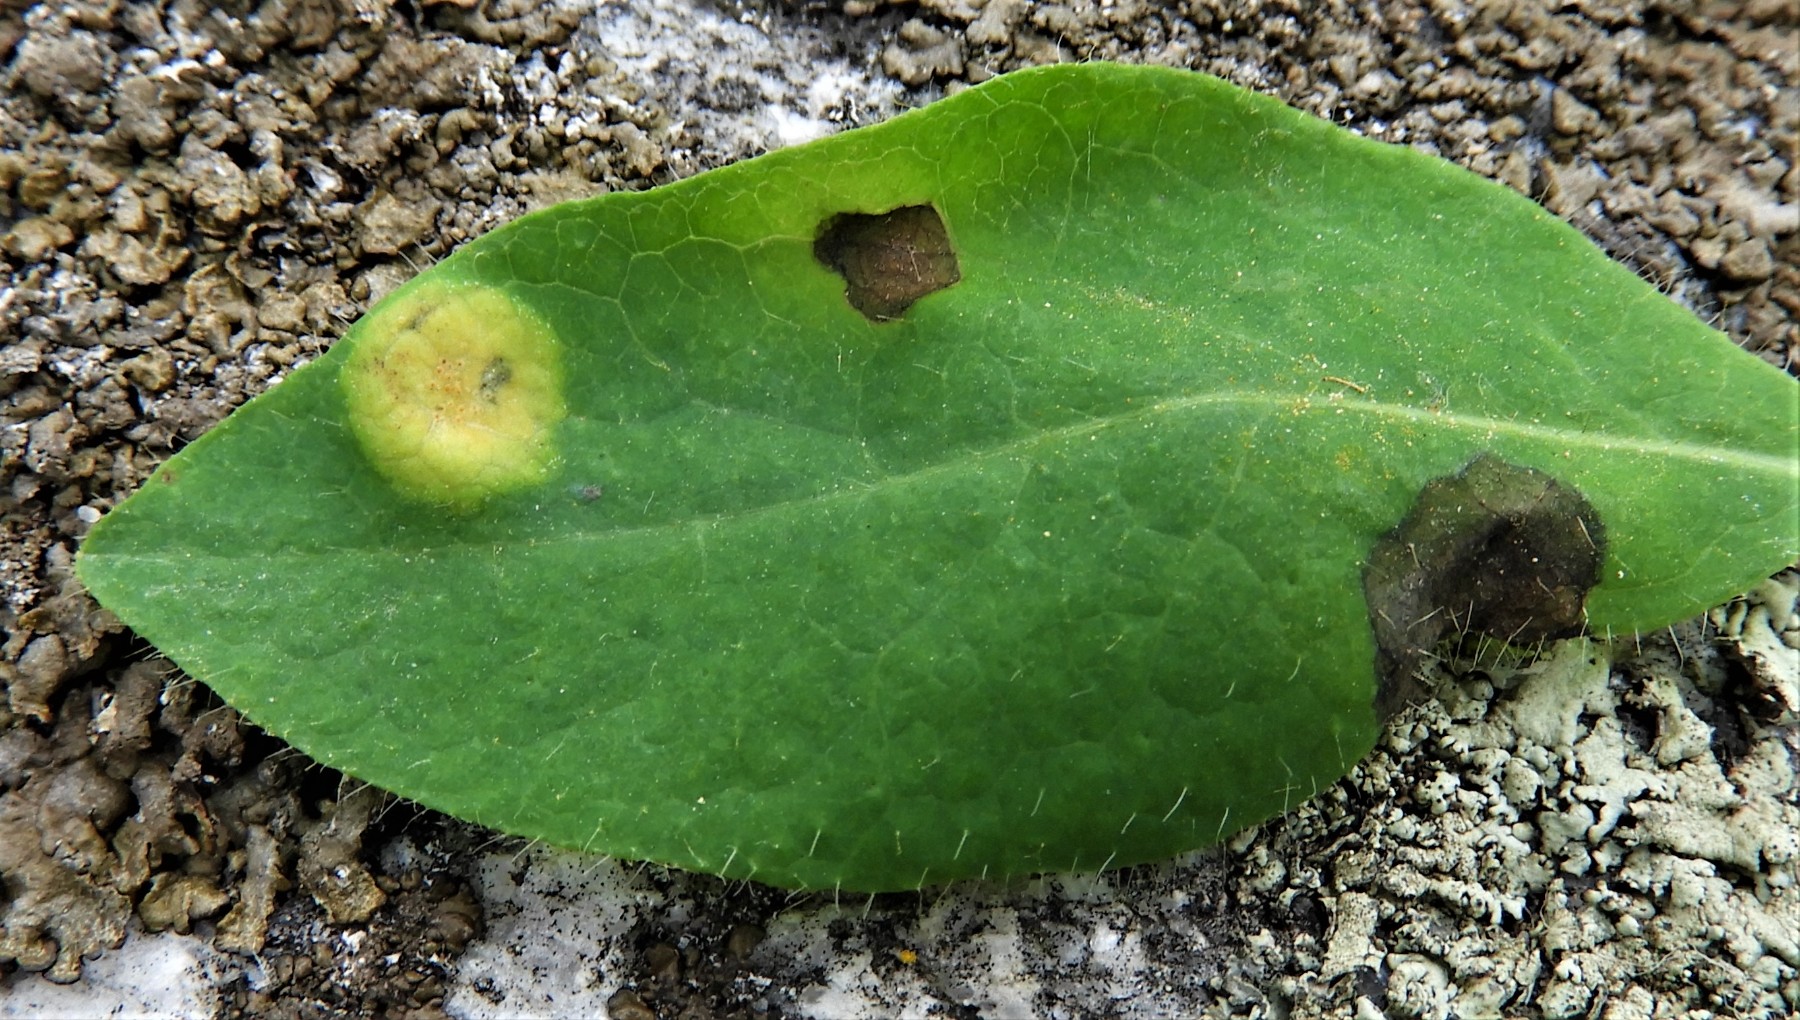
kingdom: Fungi
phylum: Basidiomycota
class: Pucciniomycetes
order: Pucciniales
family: Pucciniaceae
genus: Puccinia
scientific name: Puccinia festucae
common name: gedeblad-tvecellerust
